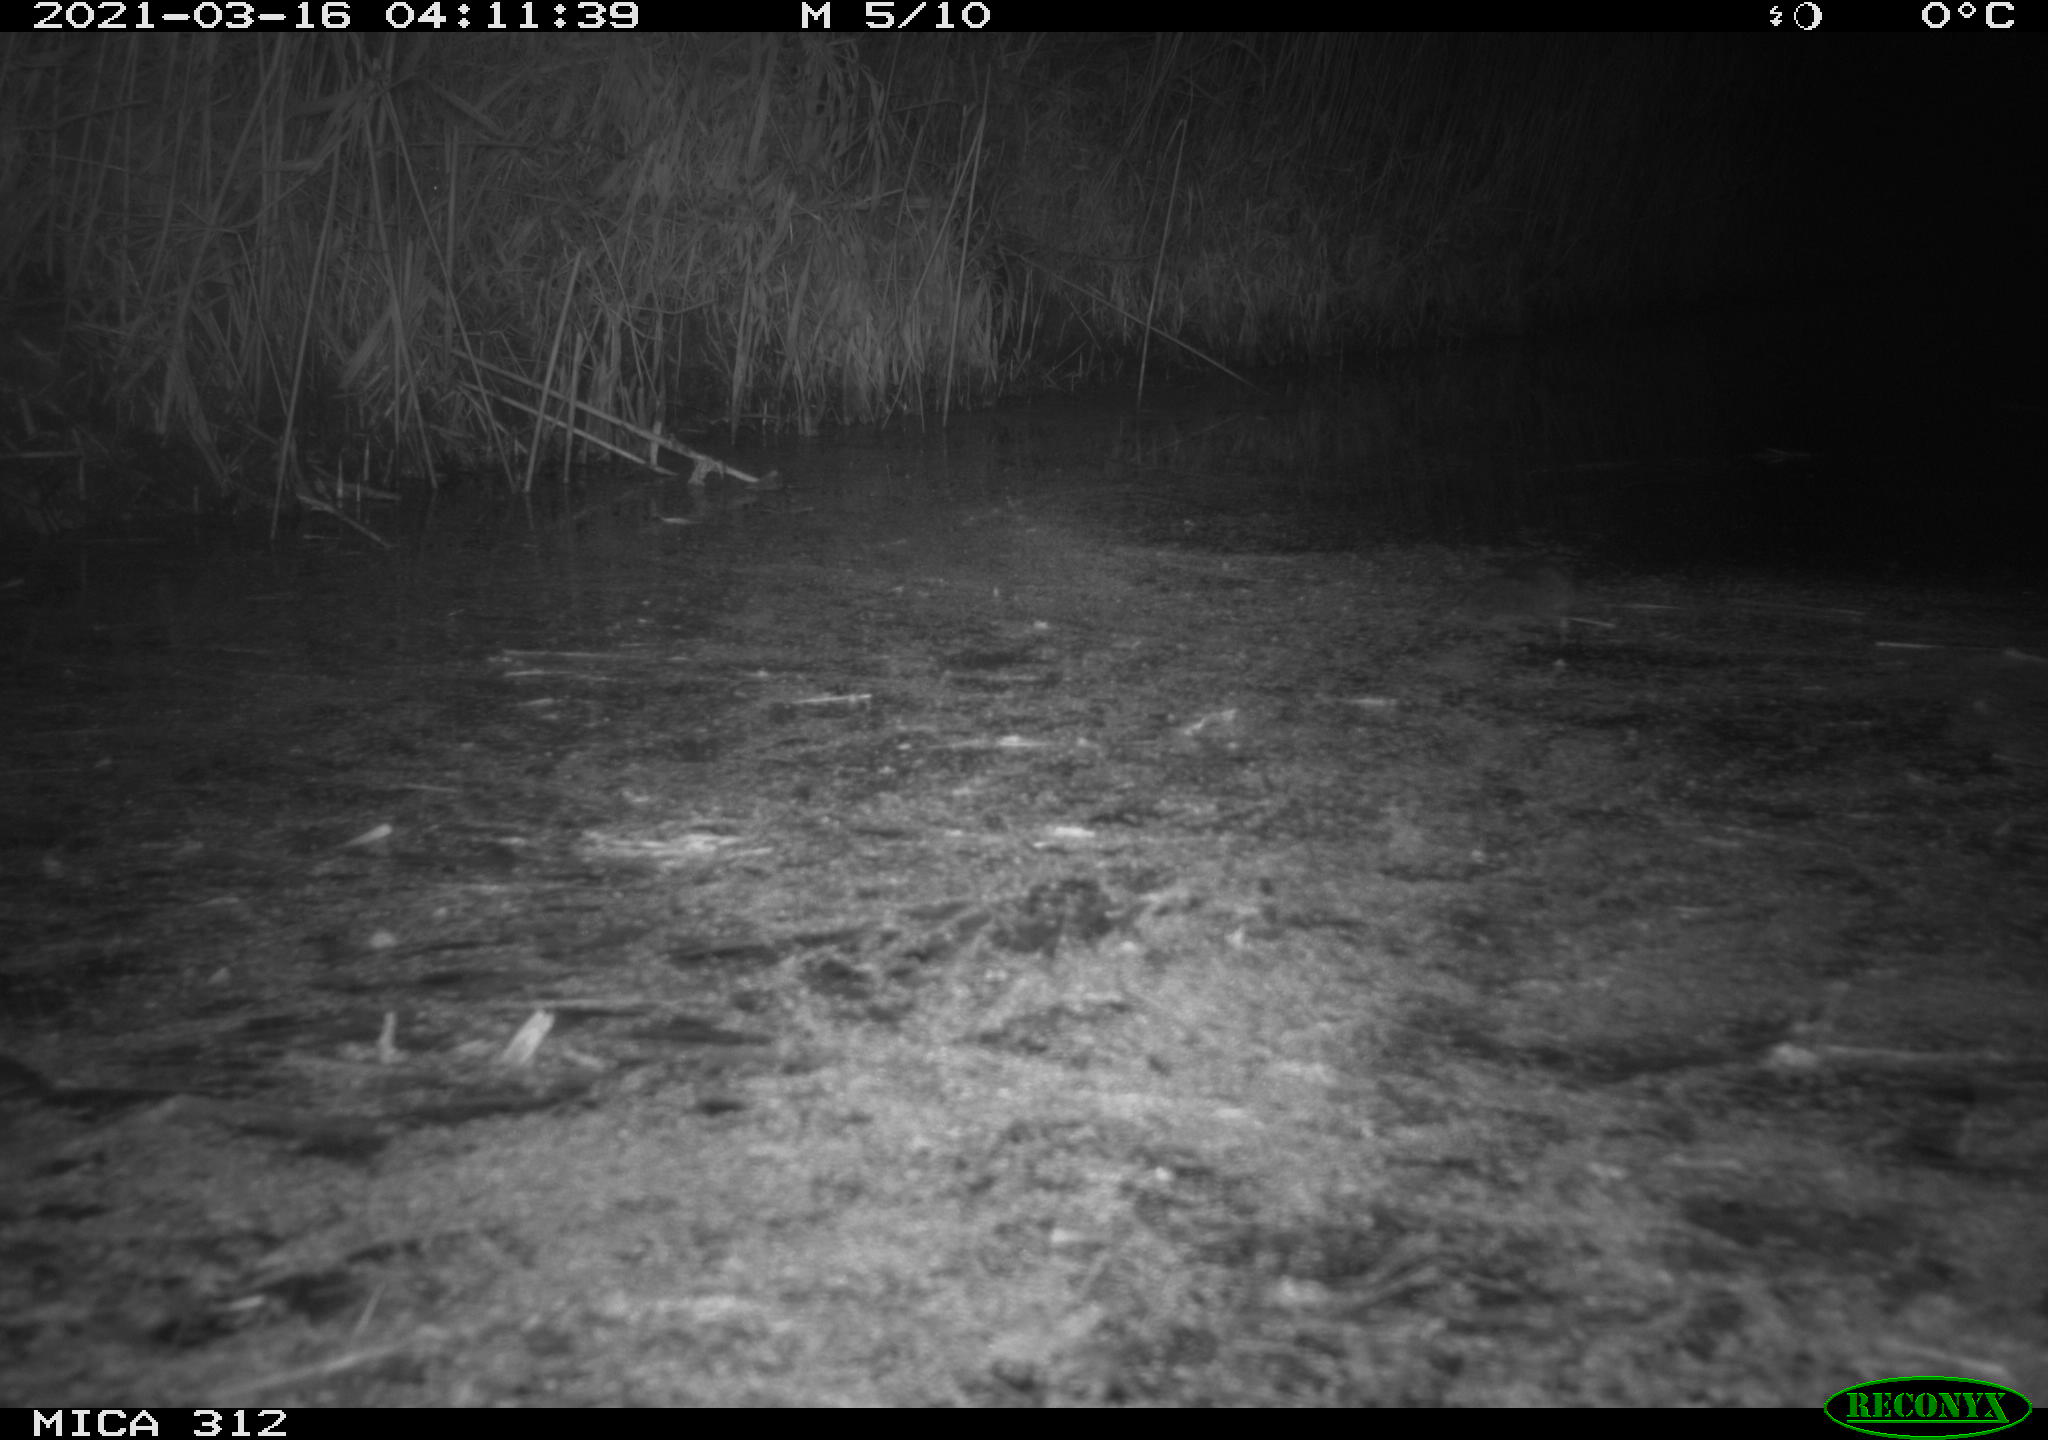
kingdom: Animalia
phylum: Chordata
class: Mammalia
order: Rodentia
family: Cricetidae
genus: Ondatra
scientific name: Ondatra zibethicus
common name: Muskrat
